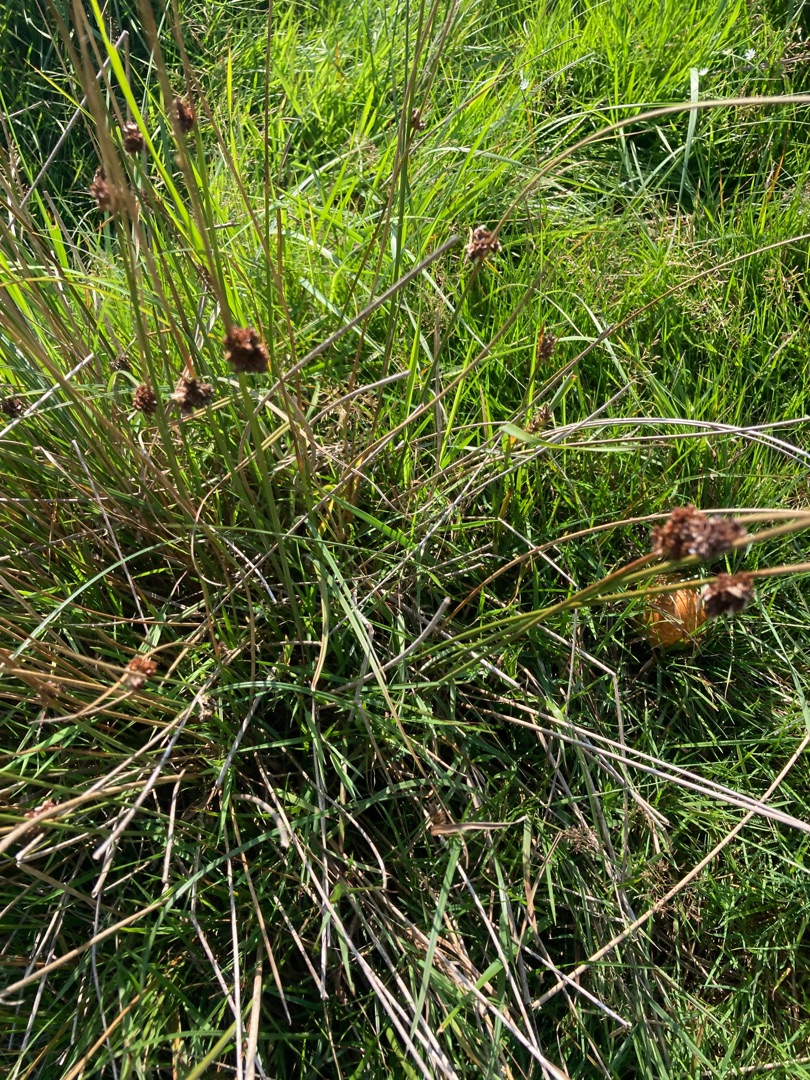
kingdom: Plantae
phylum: Tracheophyta
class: Liliopsida
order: Poales
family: Juncaceae
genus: Juncus
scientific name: Juncus effusus
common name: Lyse-siv
